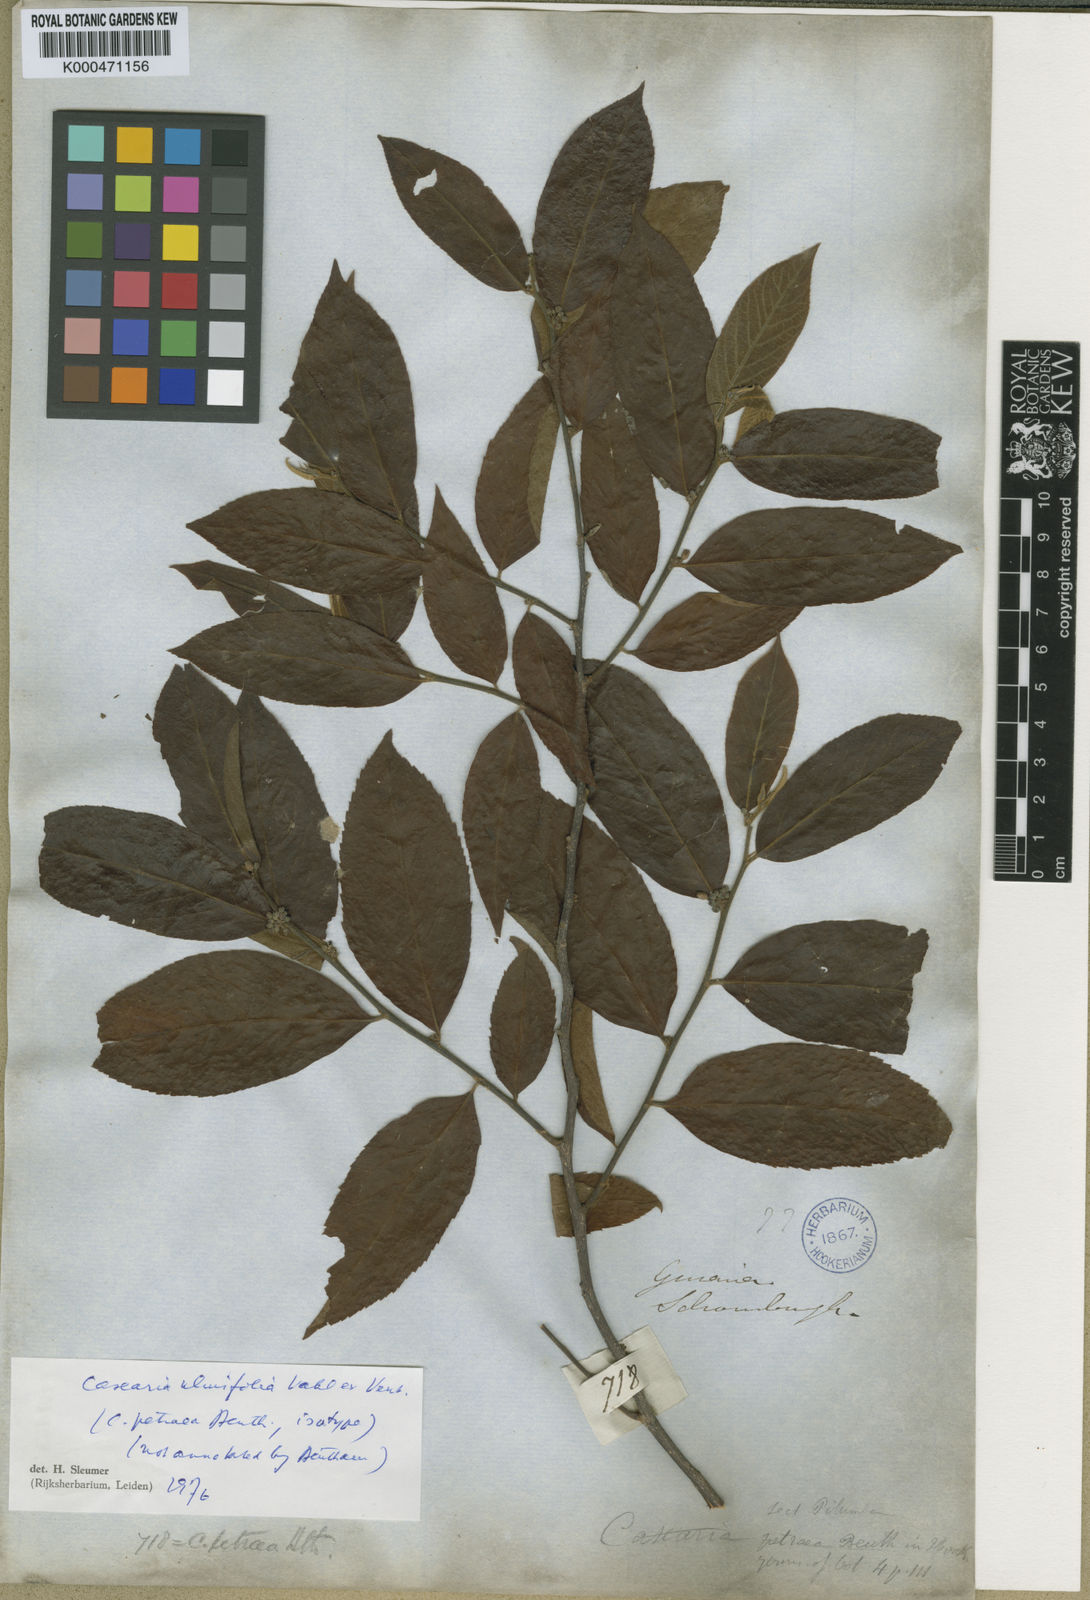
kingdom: Plantae
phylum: Tracheophyta
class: Magnoliopsida
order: Malpighiales
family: Salicaceae
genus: Casearia
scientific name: Casearia ulmifolia
